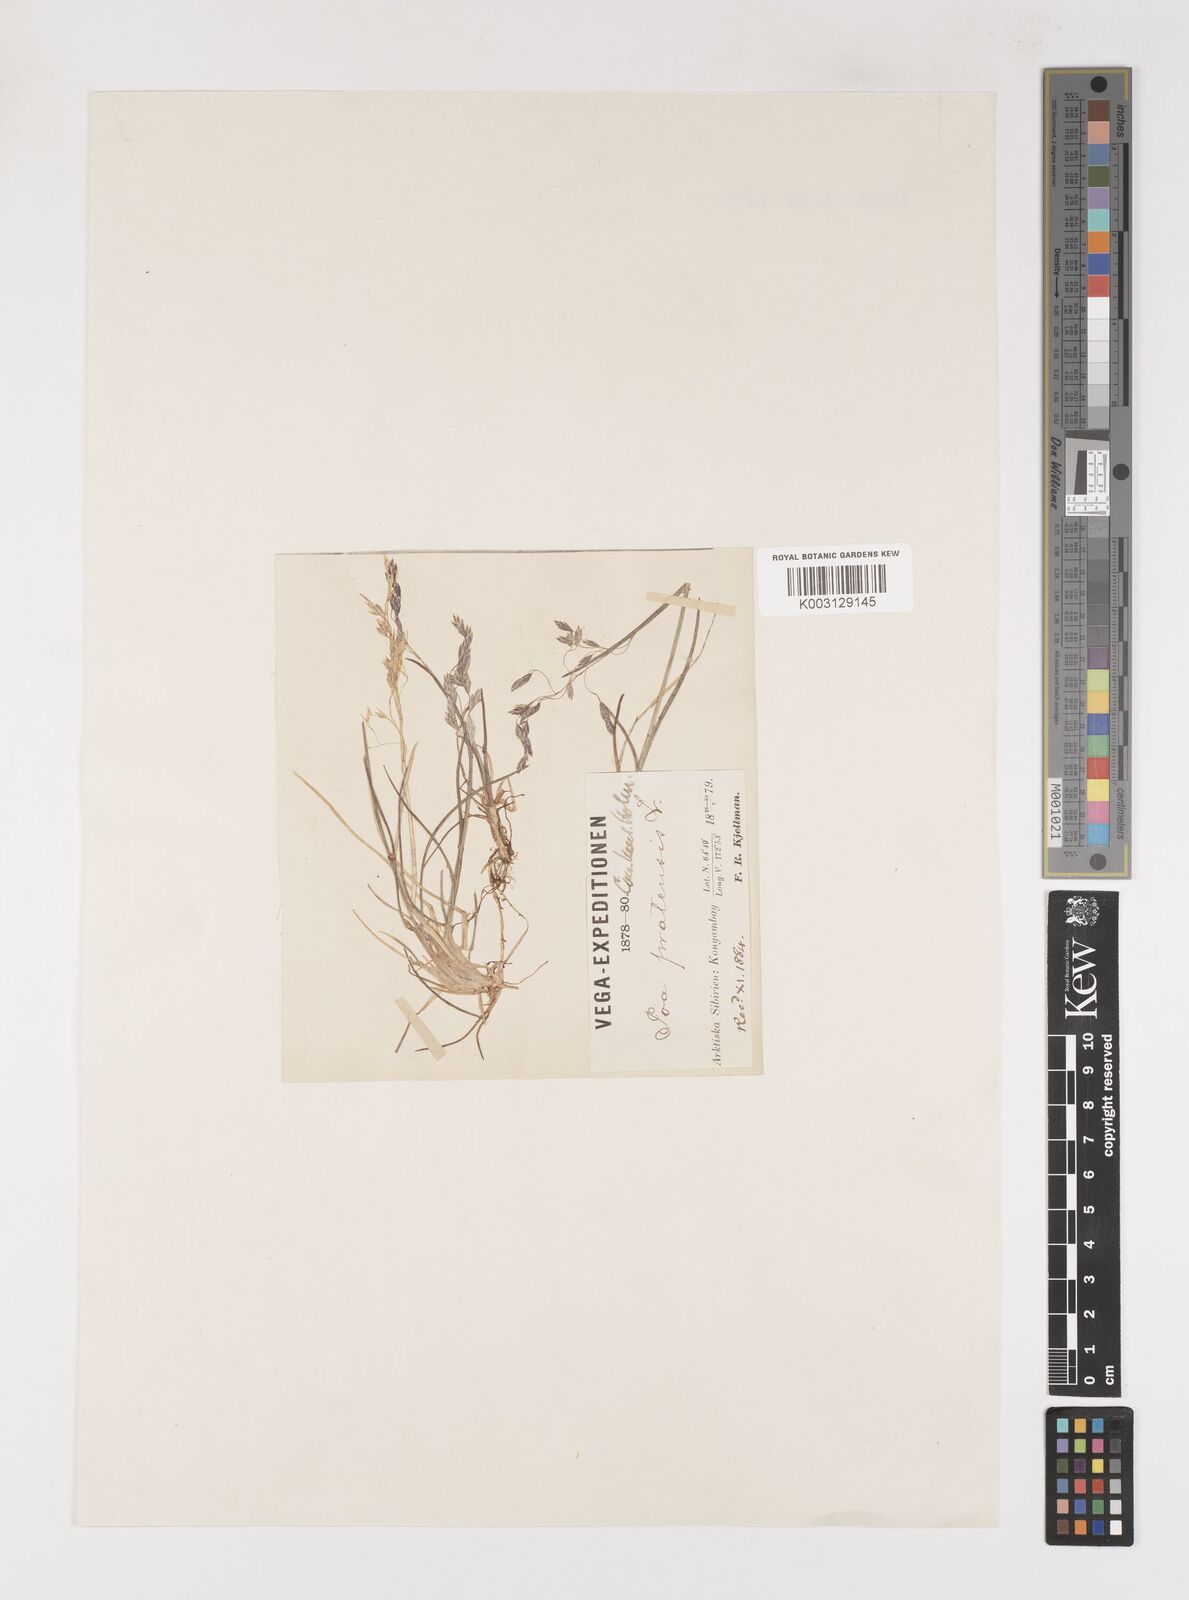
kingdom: Plantae
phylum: Tracheophyta
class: Liliopsida
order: Poales
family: Poaceae
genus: Poa
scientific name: Poa arctica
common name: Arctic bluegrass
